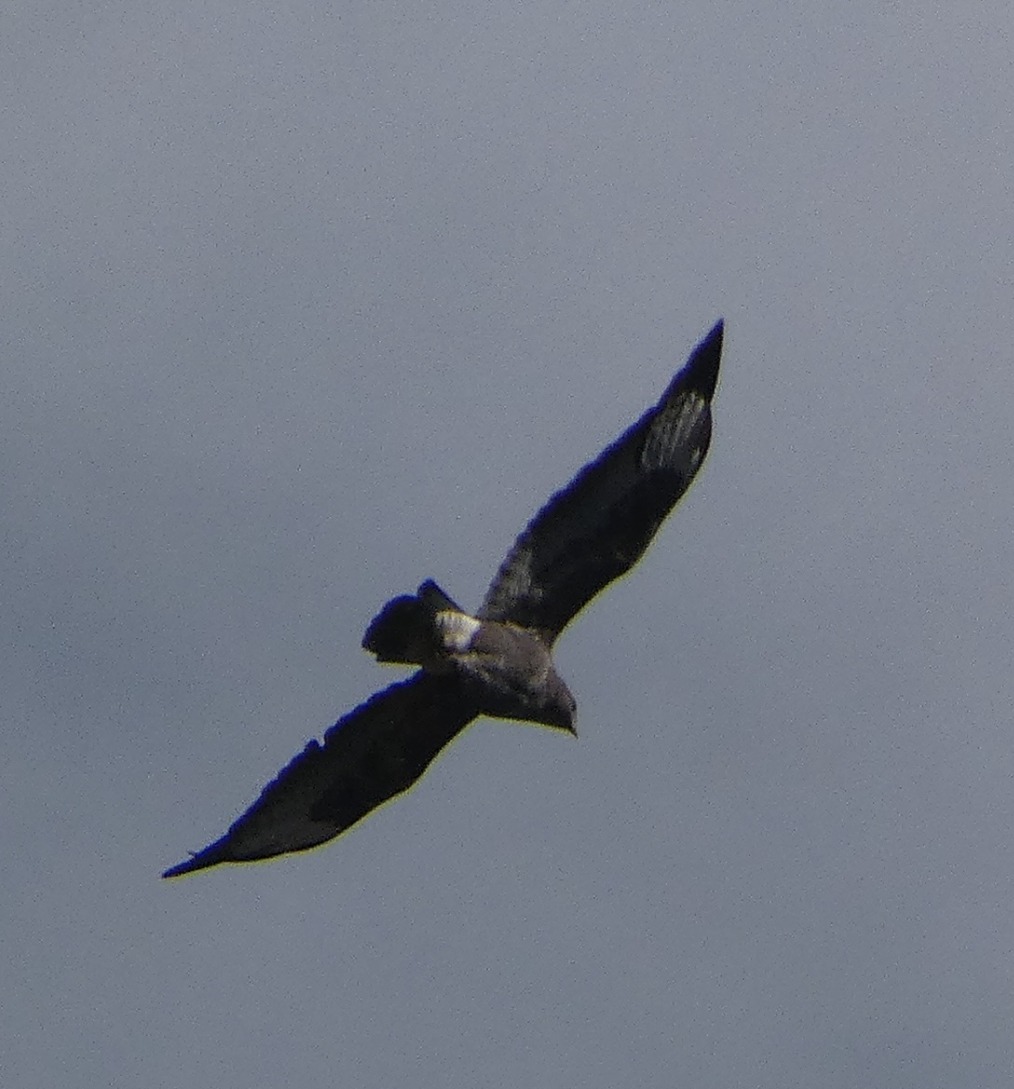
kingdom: Animalia
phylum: Chordata
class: Aves
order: Accipitriformes
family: Accipitridae
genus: Buteo
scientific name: Buteo buteo
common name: Musvåge
